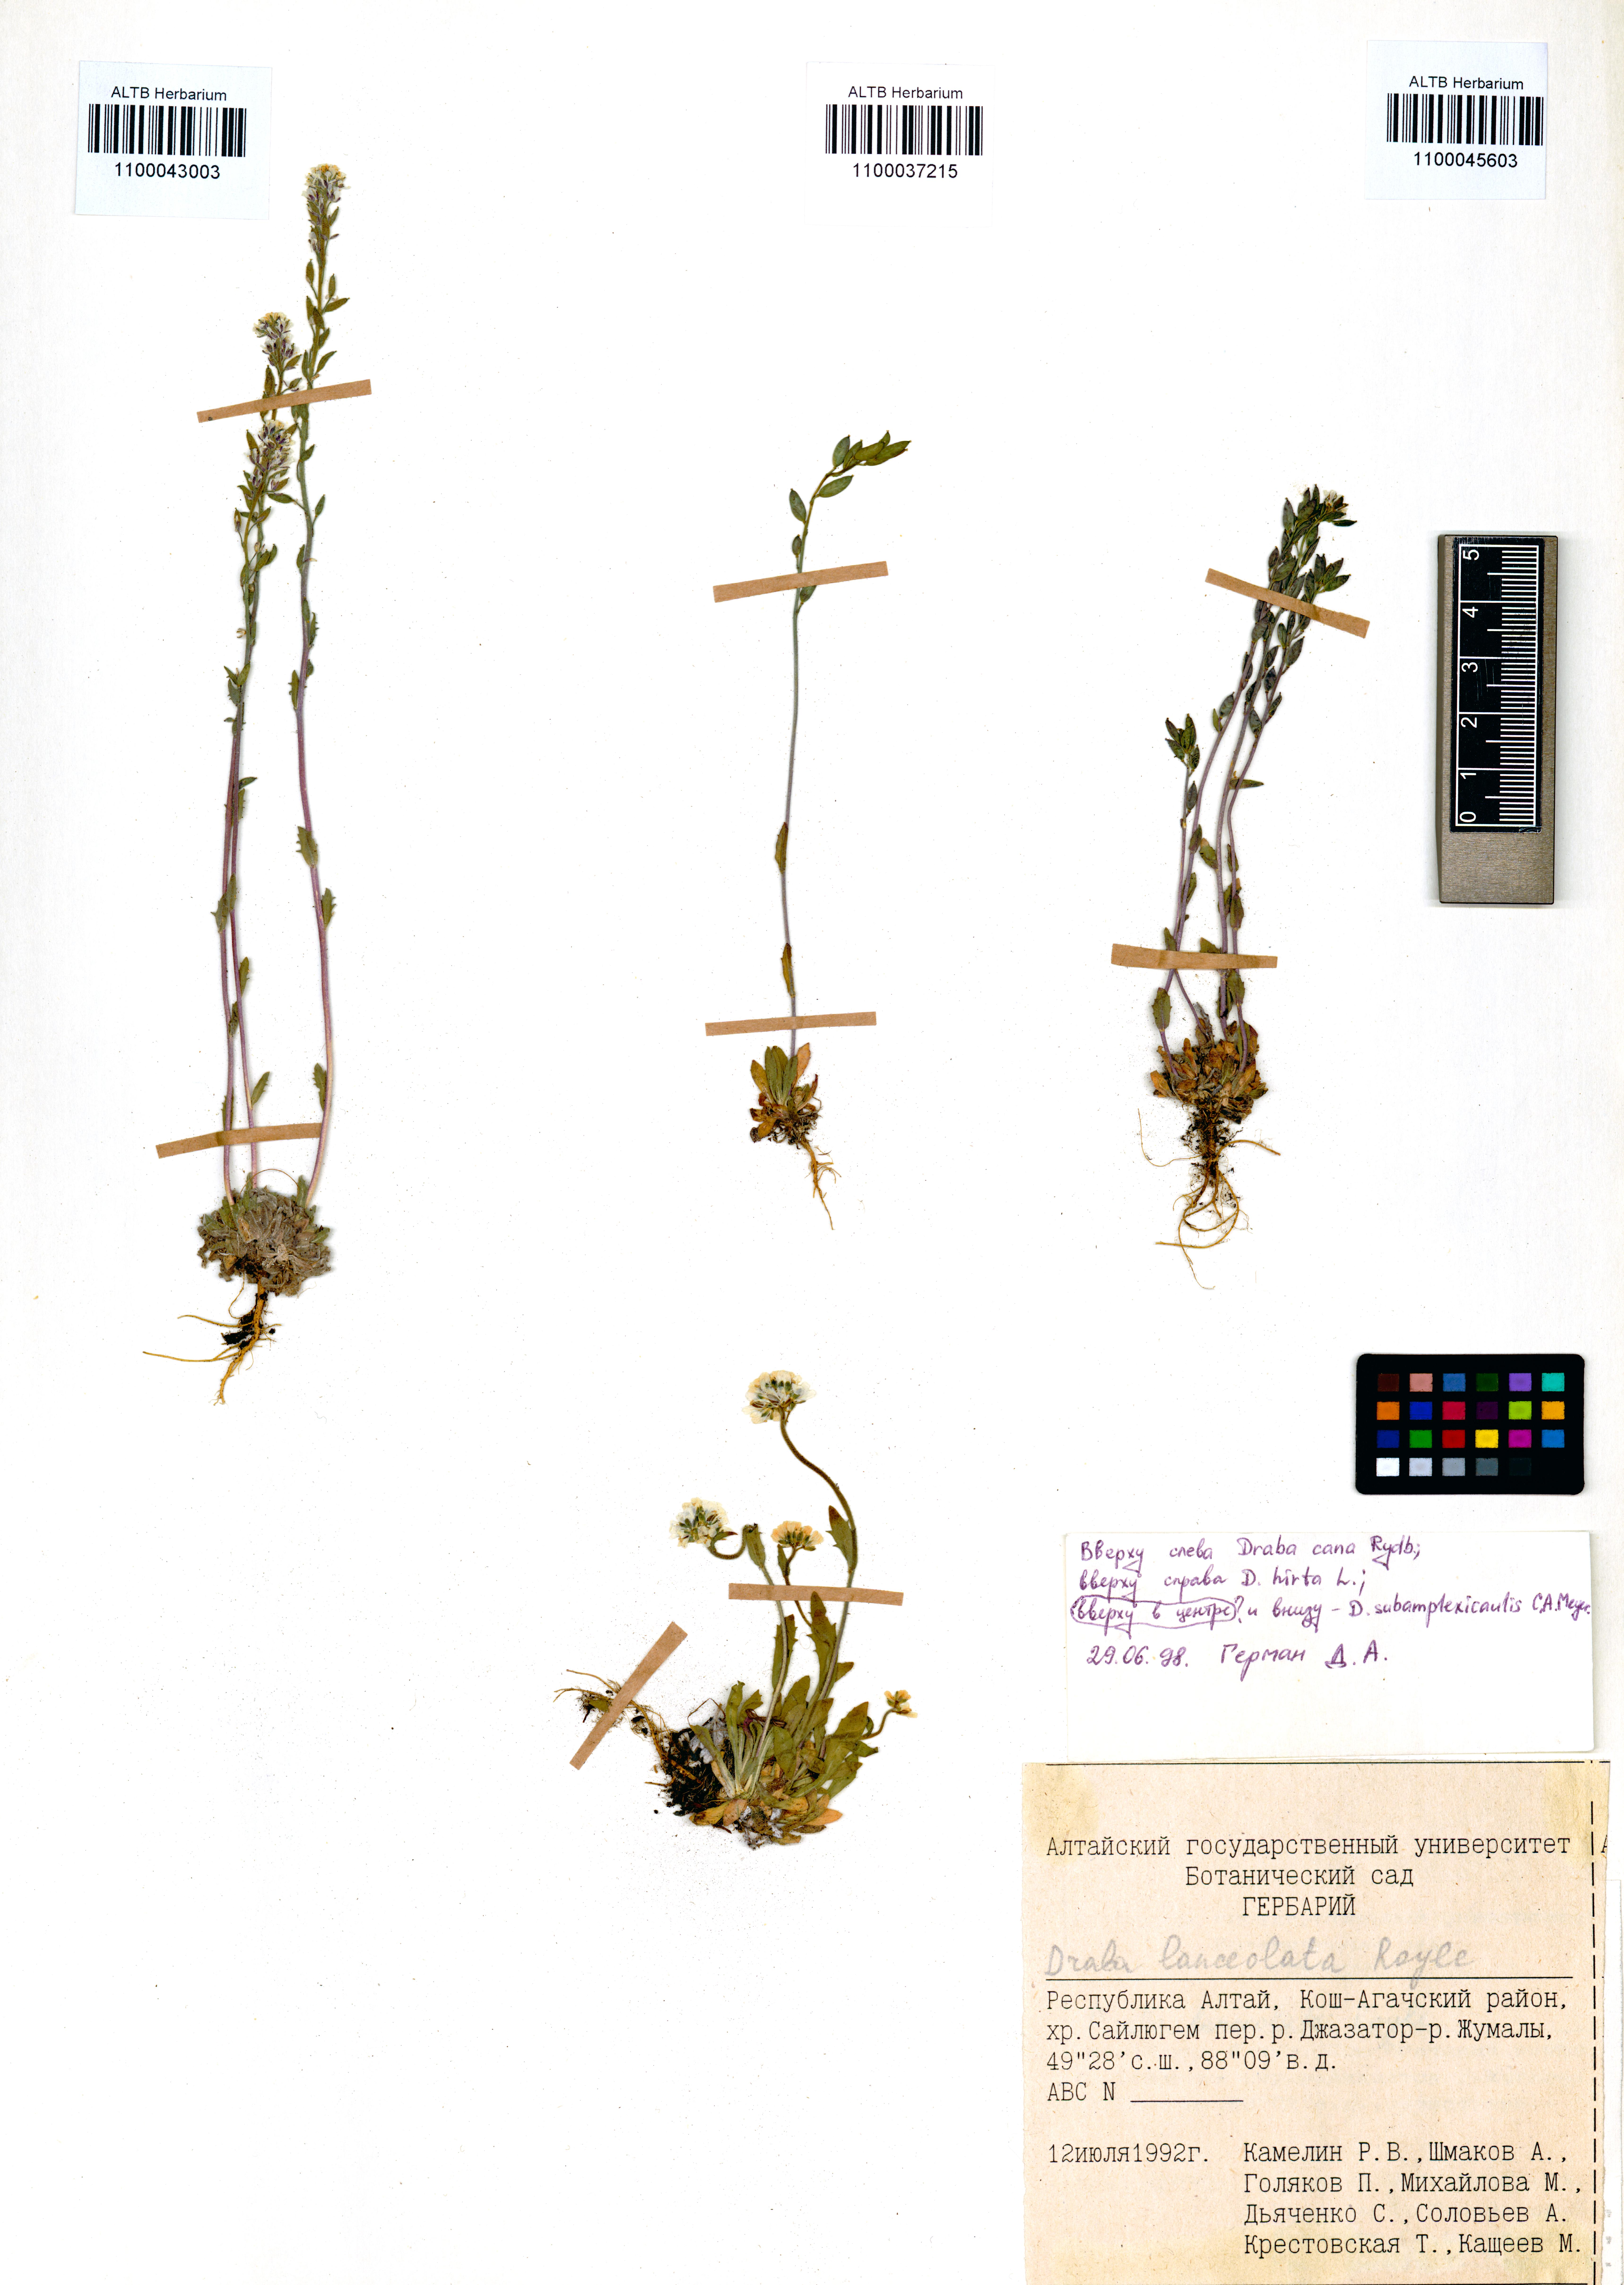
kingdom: Plantae
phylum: Tracheophyta
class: Magnoliopsida
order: Brassicales
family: Brassicaceae
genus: Draba
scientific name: Draba cana
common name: Hoary draba
